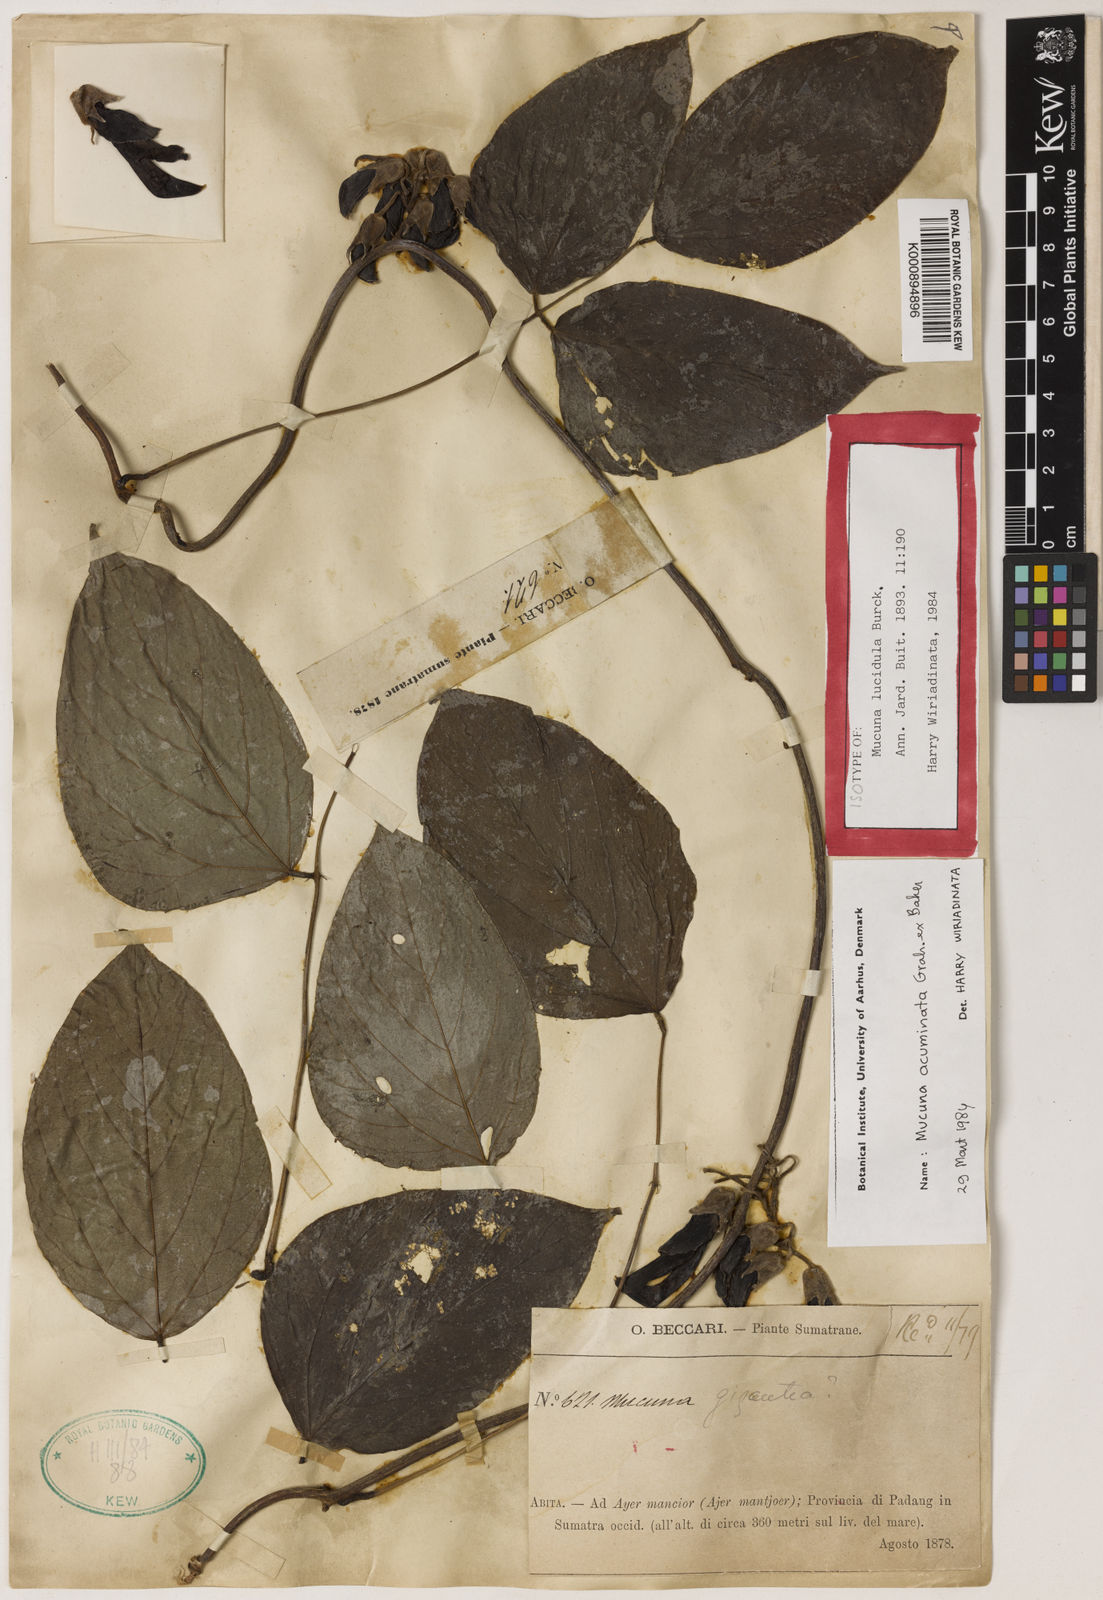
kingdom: Plantae
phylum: Tracheophyta
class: Magnoliopsida
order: Fabales
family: Fabaceae
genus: Mucuna
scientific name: Mucuna acuminata
